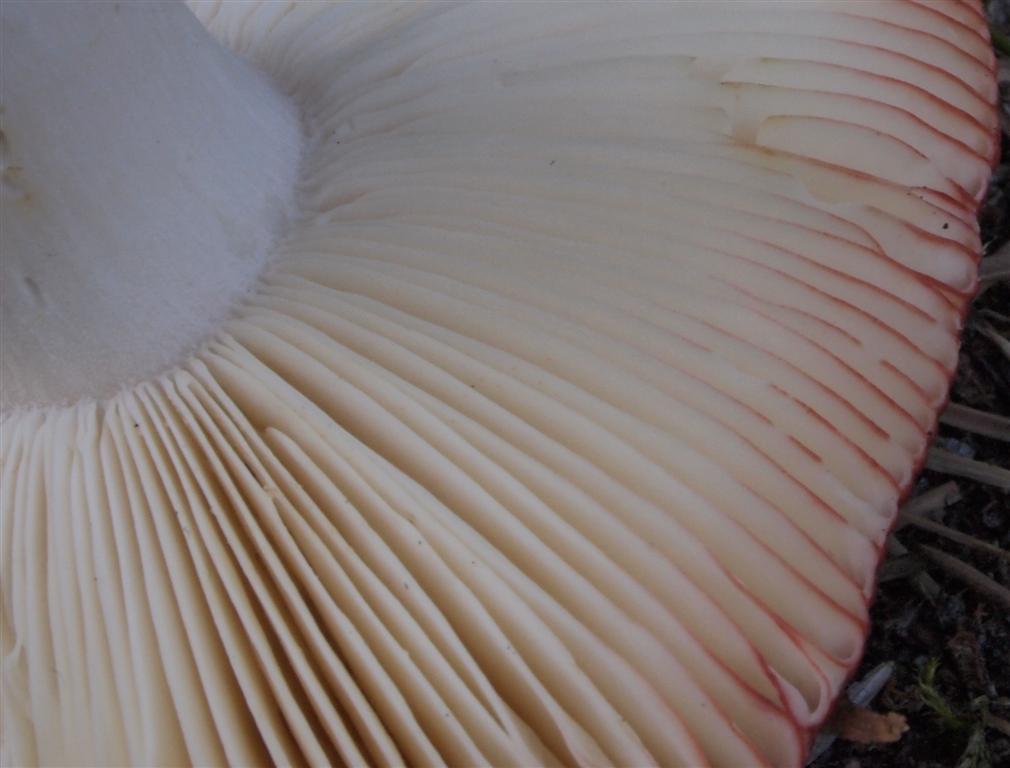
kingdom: Fungi
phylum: Basidiomycota
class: Agaricomycetes
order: Russulales
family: Russulaceae
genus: Russula
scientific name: Russula velenovskyi
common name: orangerød skørhat
